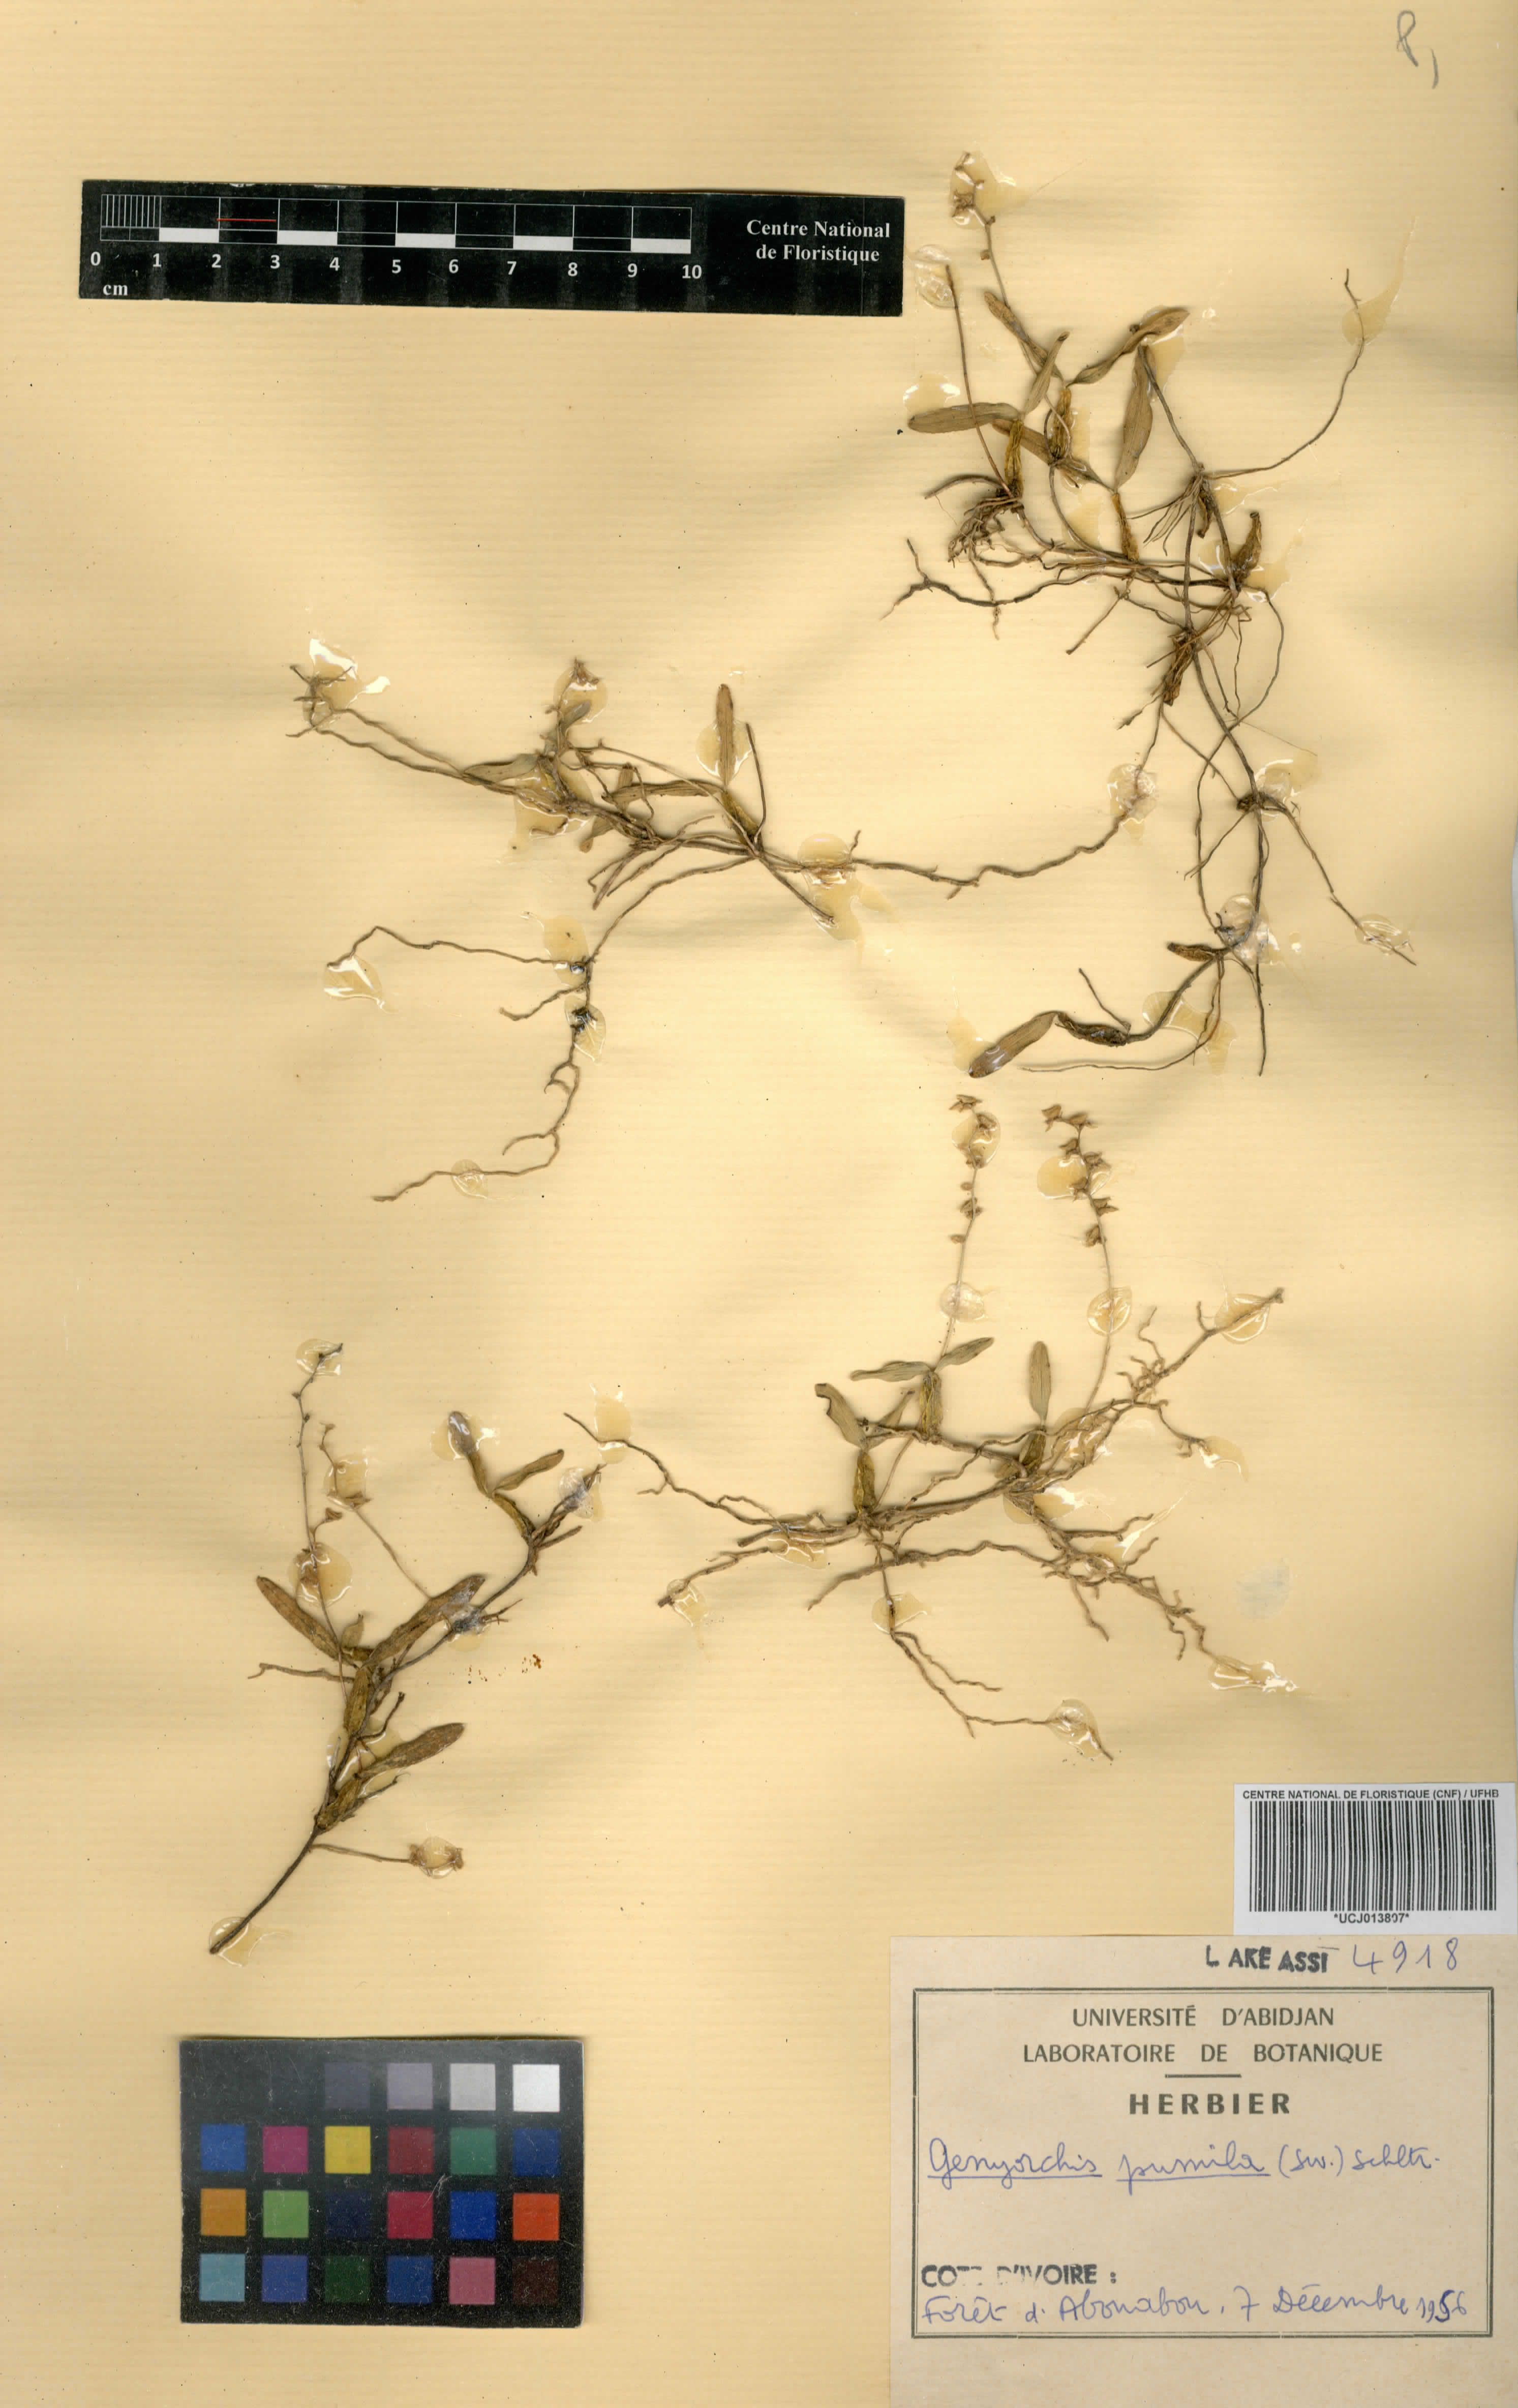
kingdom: Plantae
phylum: Tracheophyta
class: Liliopsida
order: Asparagales
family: Orchidaceae
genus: Bulbophyllum
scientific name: Bulbophyllum pumilum
